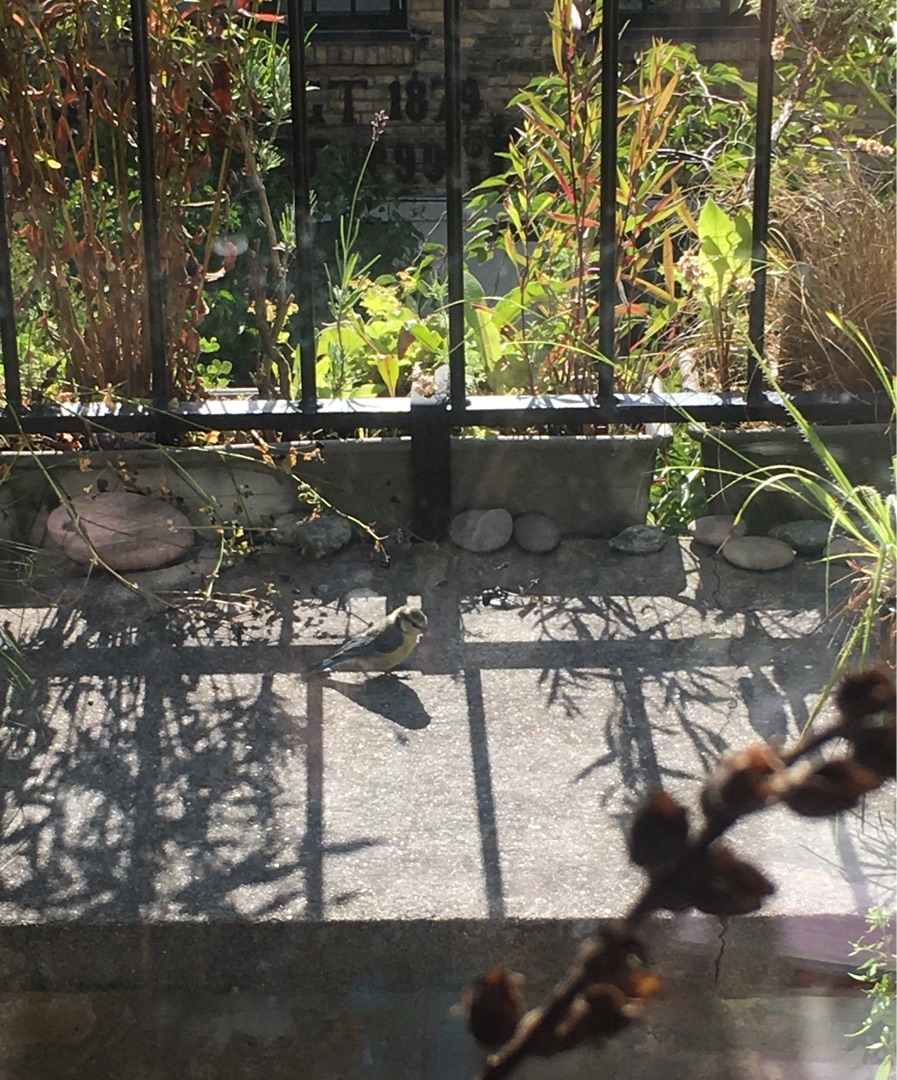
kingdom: Animalia
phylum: Chordata
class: Aves
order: Passeriformes
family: Paridae
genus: Cyanistes
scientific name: Cyanistes caeruleus
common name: Blåmejse
